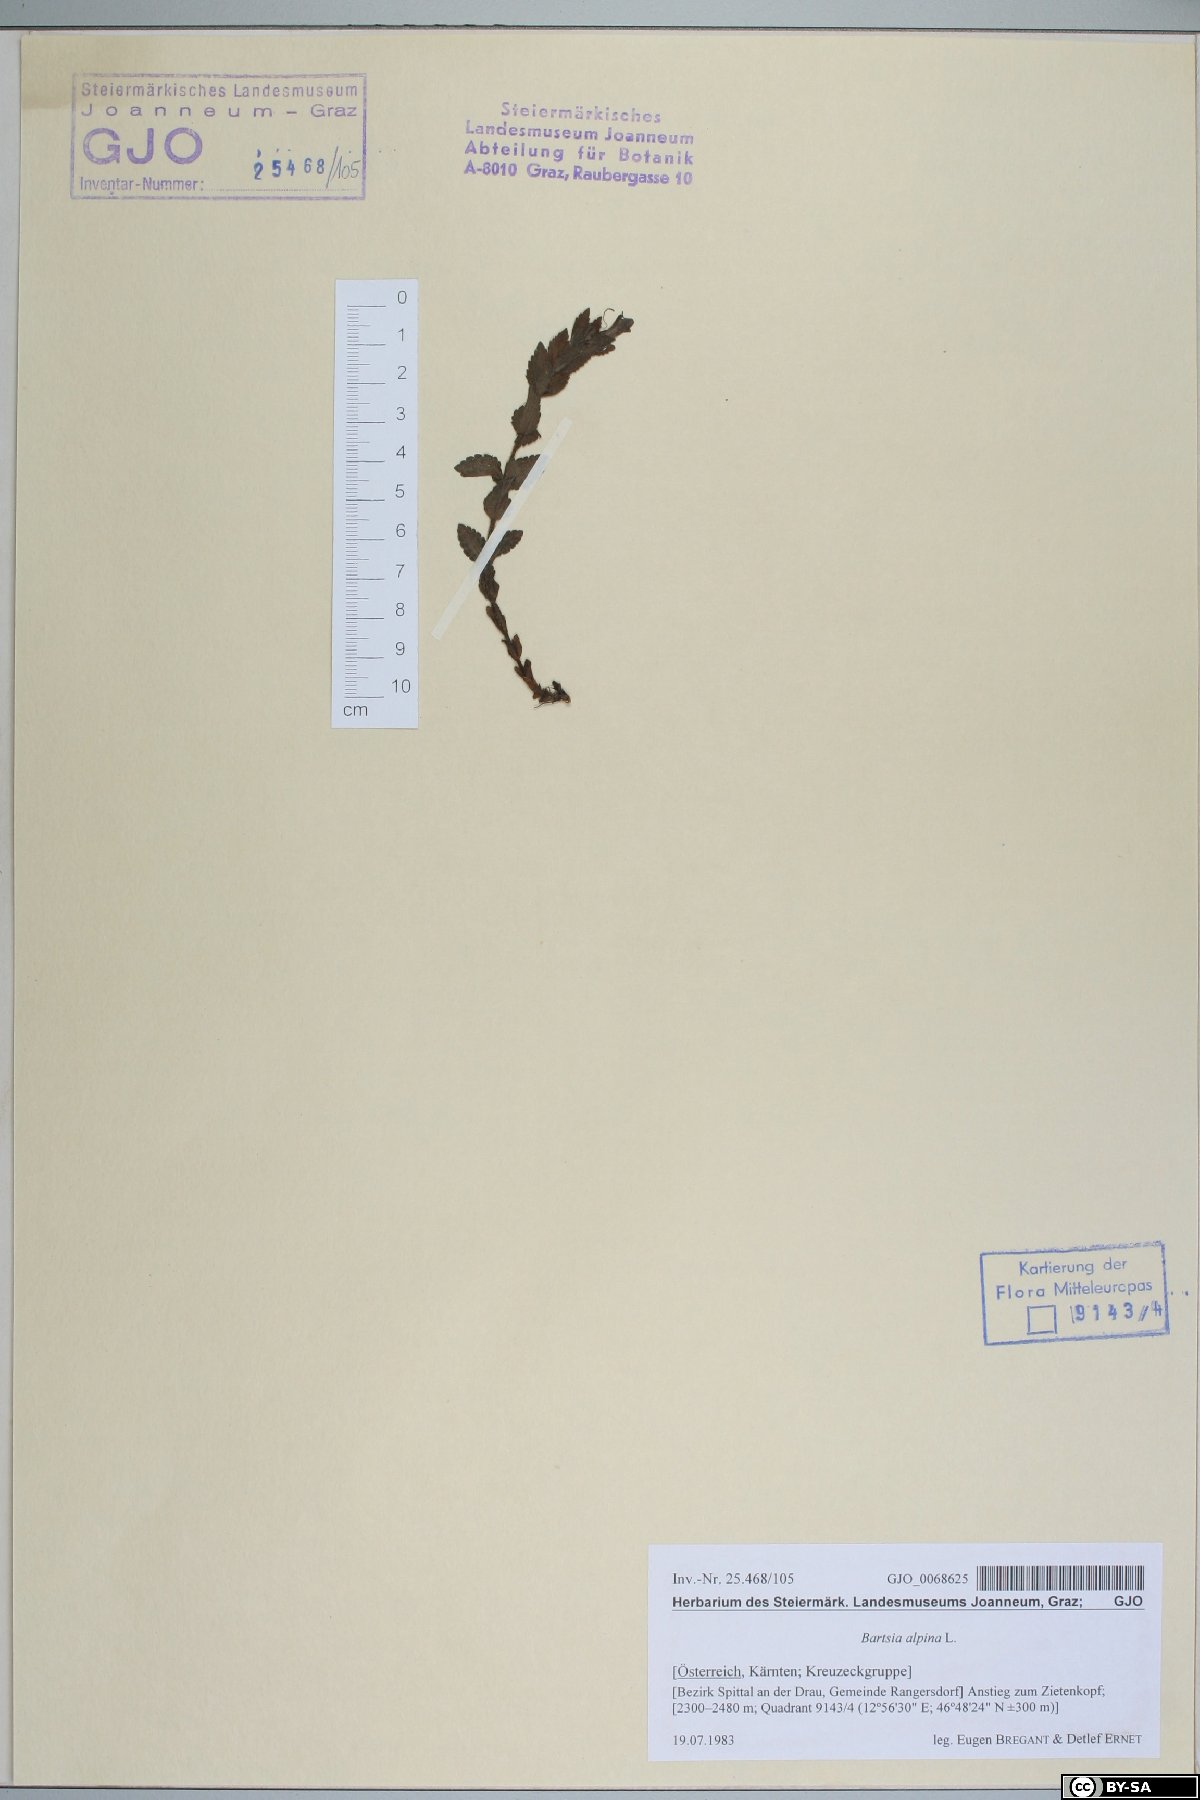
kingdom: Plantae
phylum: Tracheophyta
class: Magnoliopsida
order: Lamiales
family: Orobanchaceae
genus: Bartsia
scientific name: Bartsia alpina
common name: Alpine bartsia
